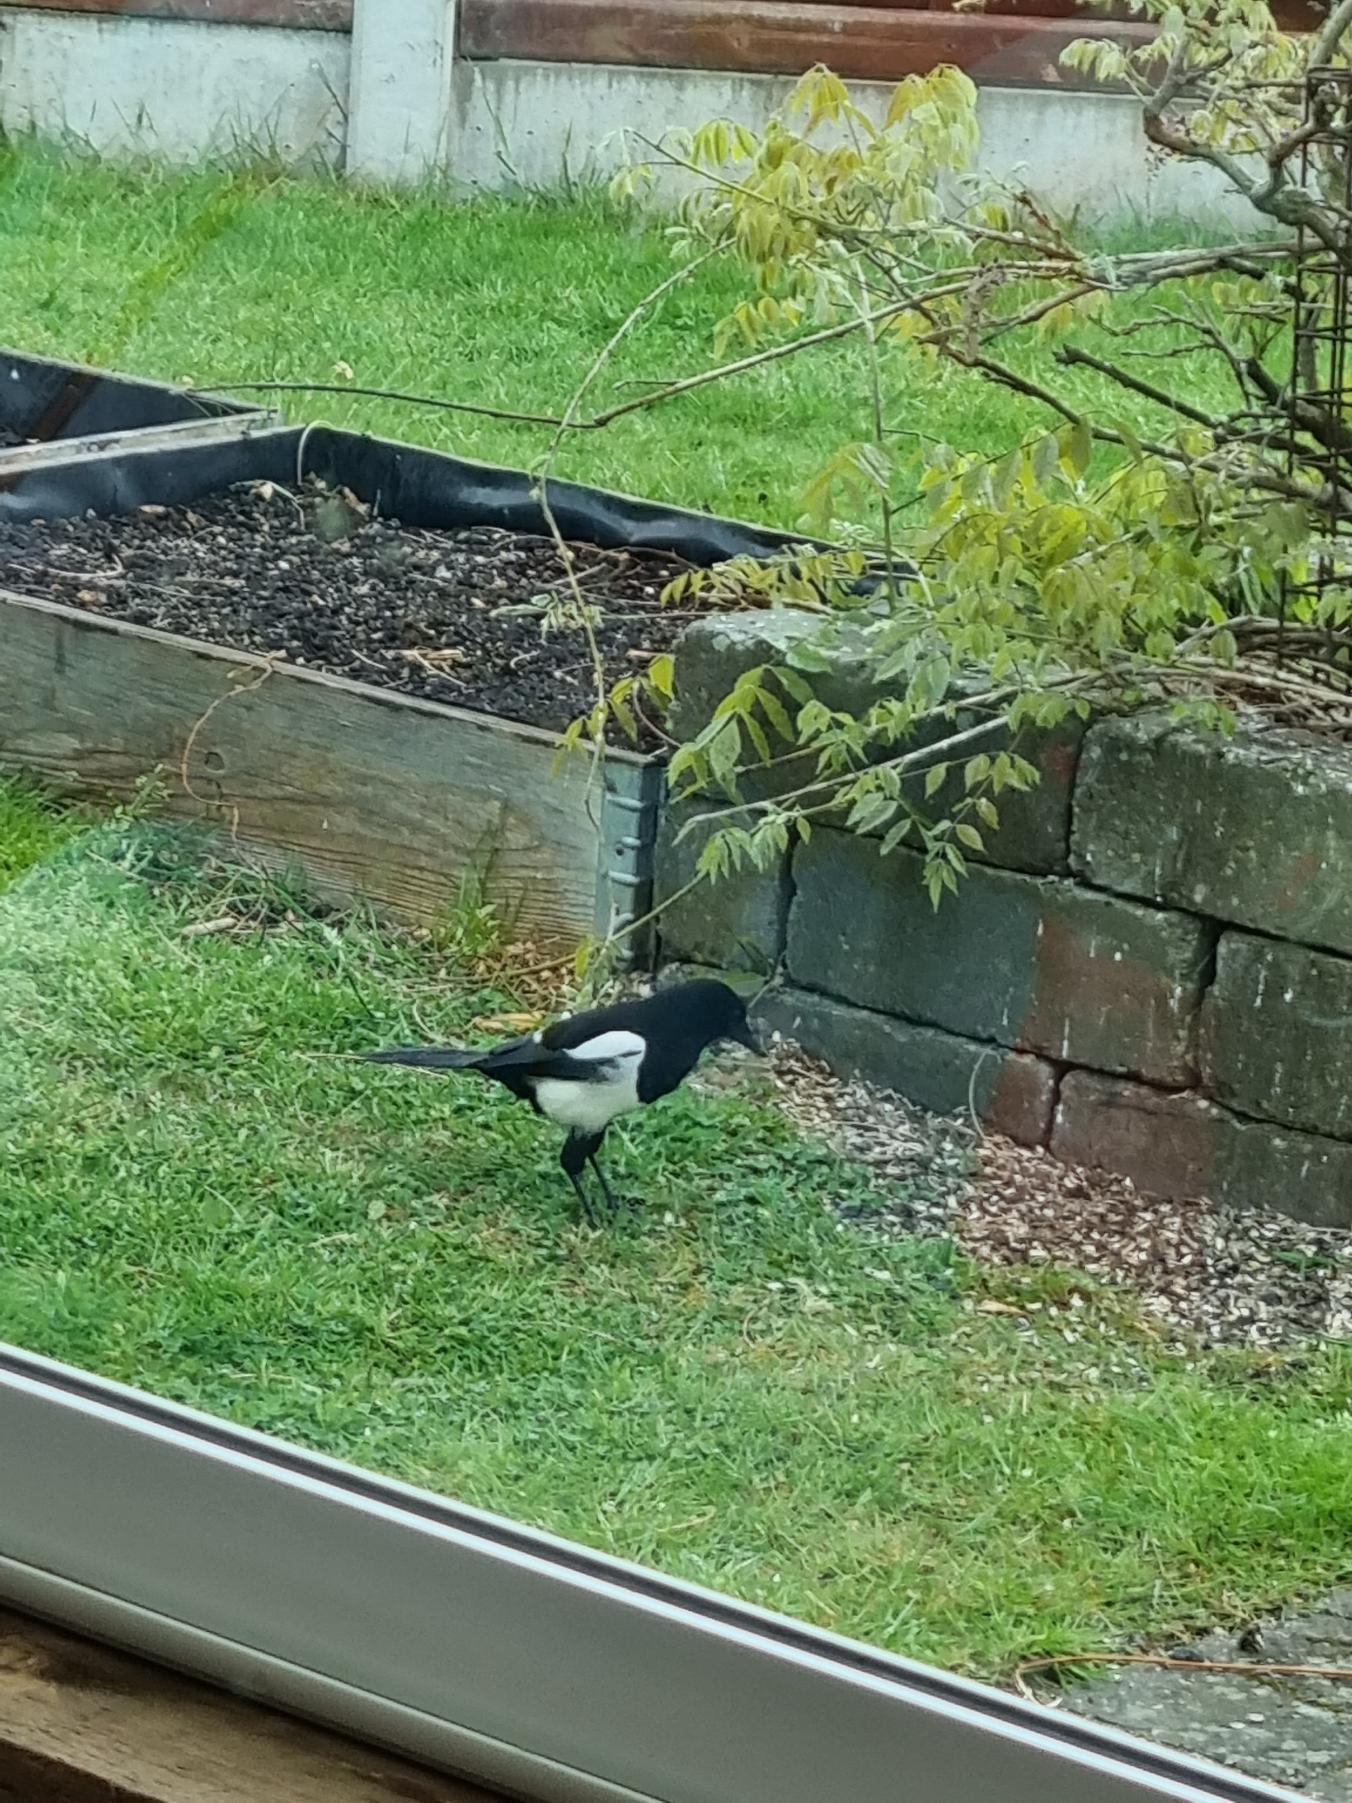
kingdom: Animalia
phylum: Chordata
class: Aves
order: Passeriformes
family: Corvidae
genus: Pica
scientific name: Pica pica
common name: Husskade
